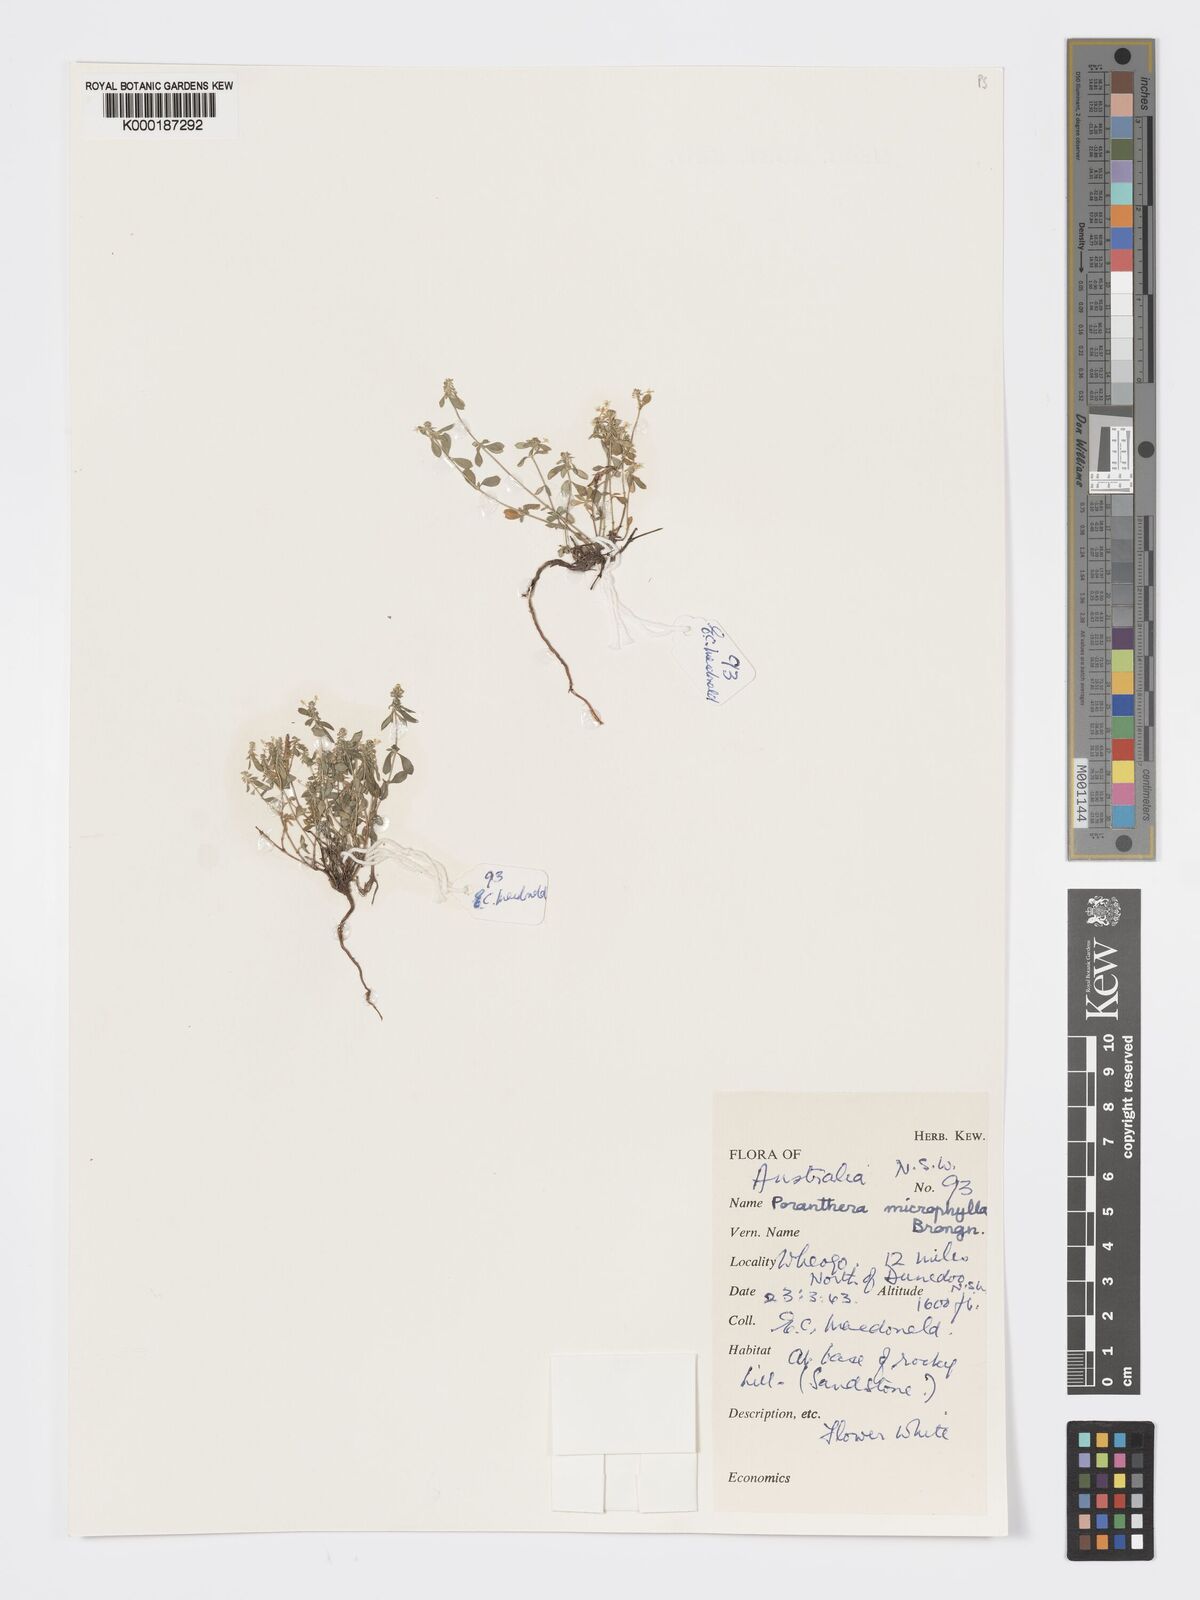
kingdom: Plantae
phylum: Tracheophyta
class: Magnoliopsida
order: Malpighiales
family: Phyllanthaceae
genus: Poranthera
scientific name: Poranthera microphylla
